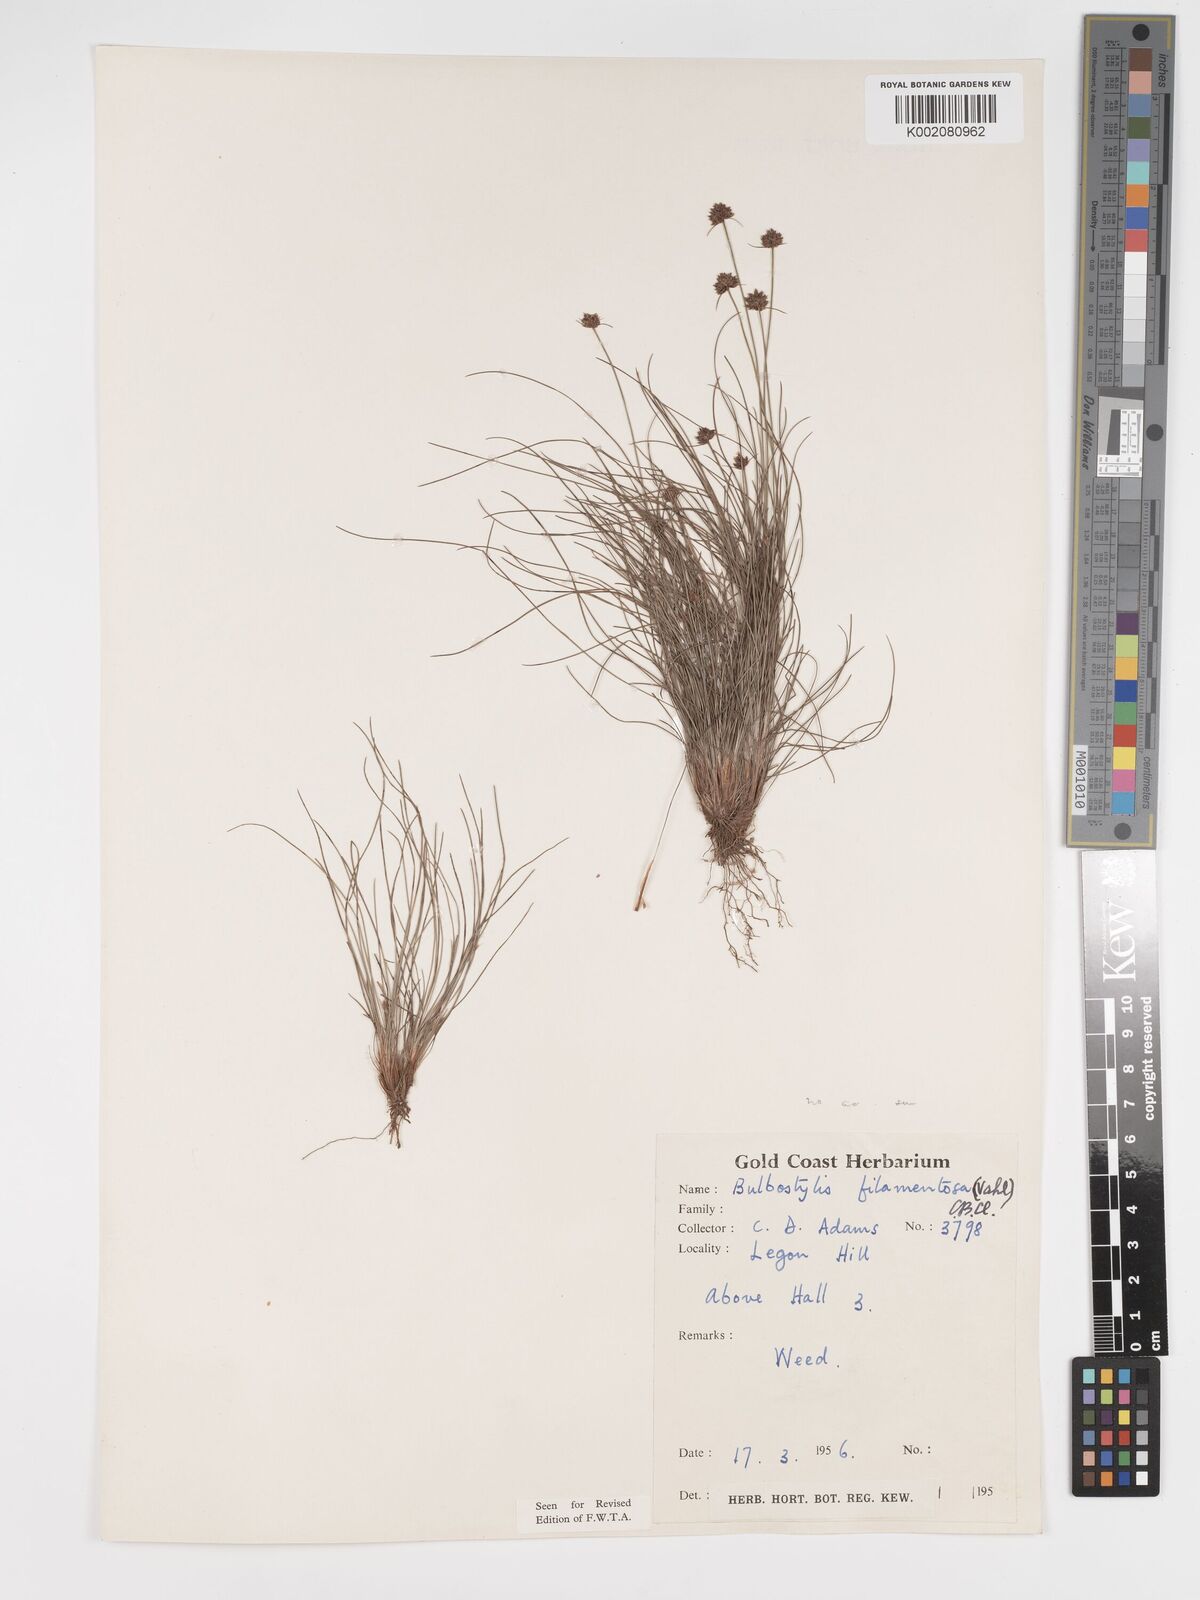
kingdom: Plantae
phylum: Tracheophyta
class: Liliopsida
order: Poales
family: Cyperaceae
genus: Bulbostylis
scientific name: Bulbostylis filamentosa
